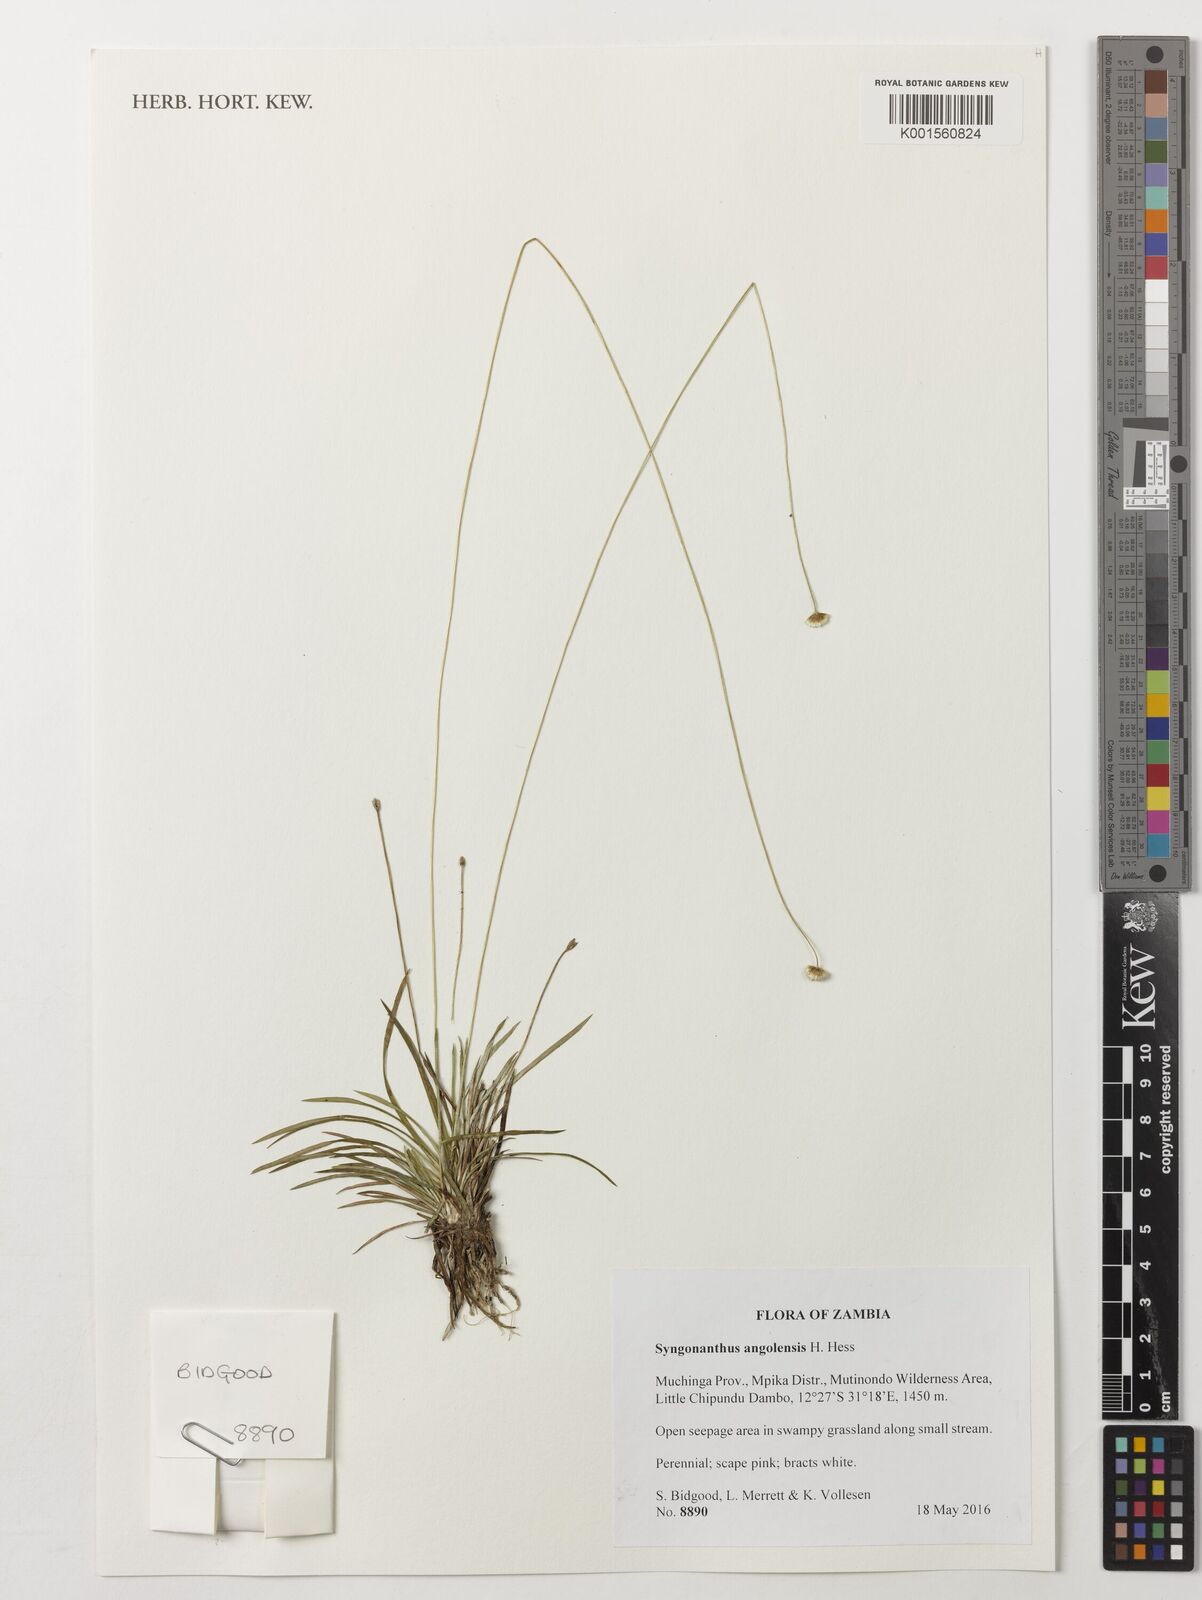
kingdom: Plantae
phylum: Tracheophyta
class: Liliopsida
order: Poales
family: Eriocaulaceae
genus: Syngonanthus
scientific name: Syngonanthus angolensis
